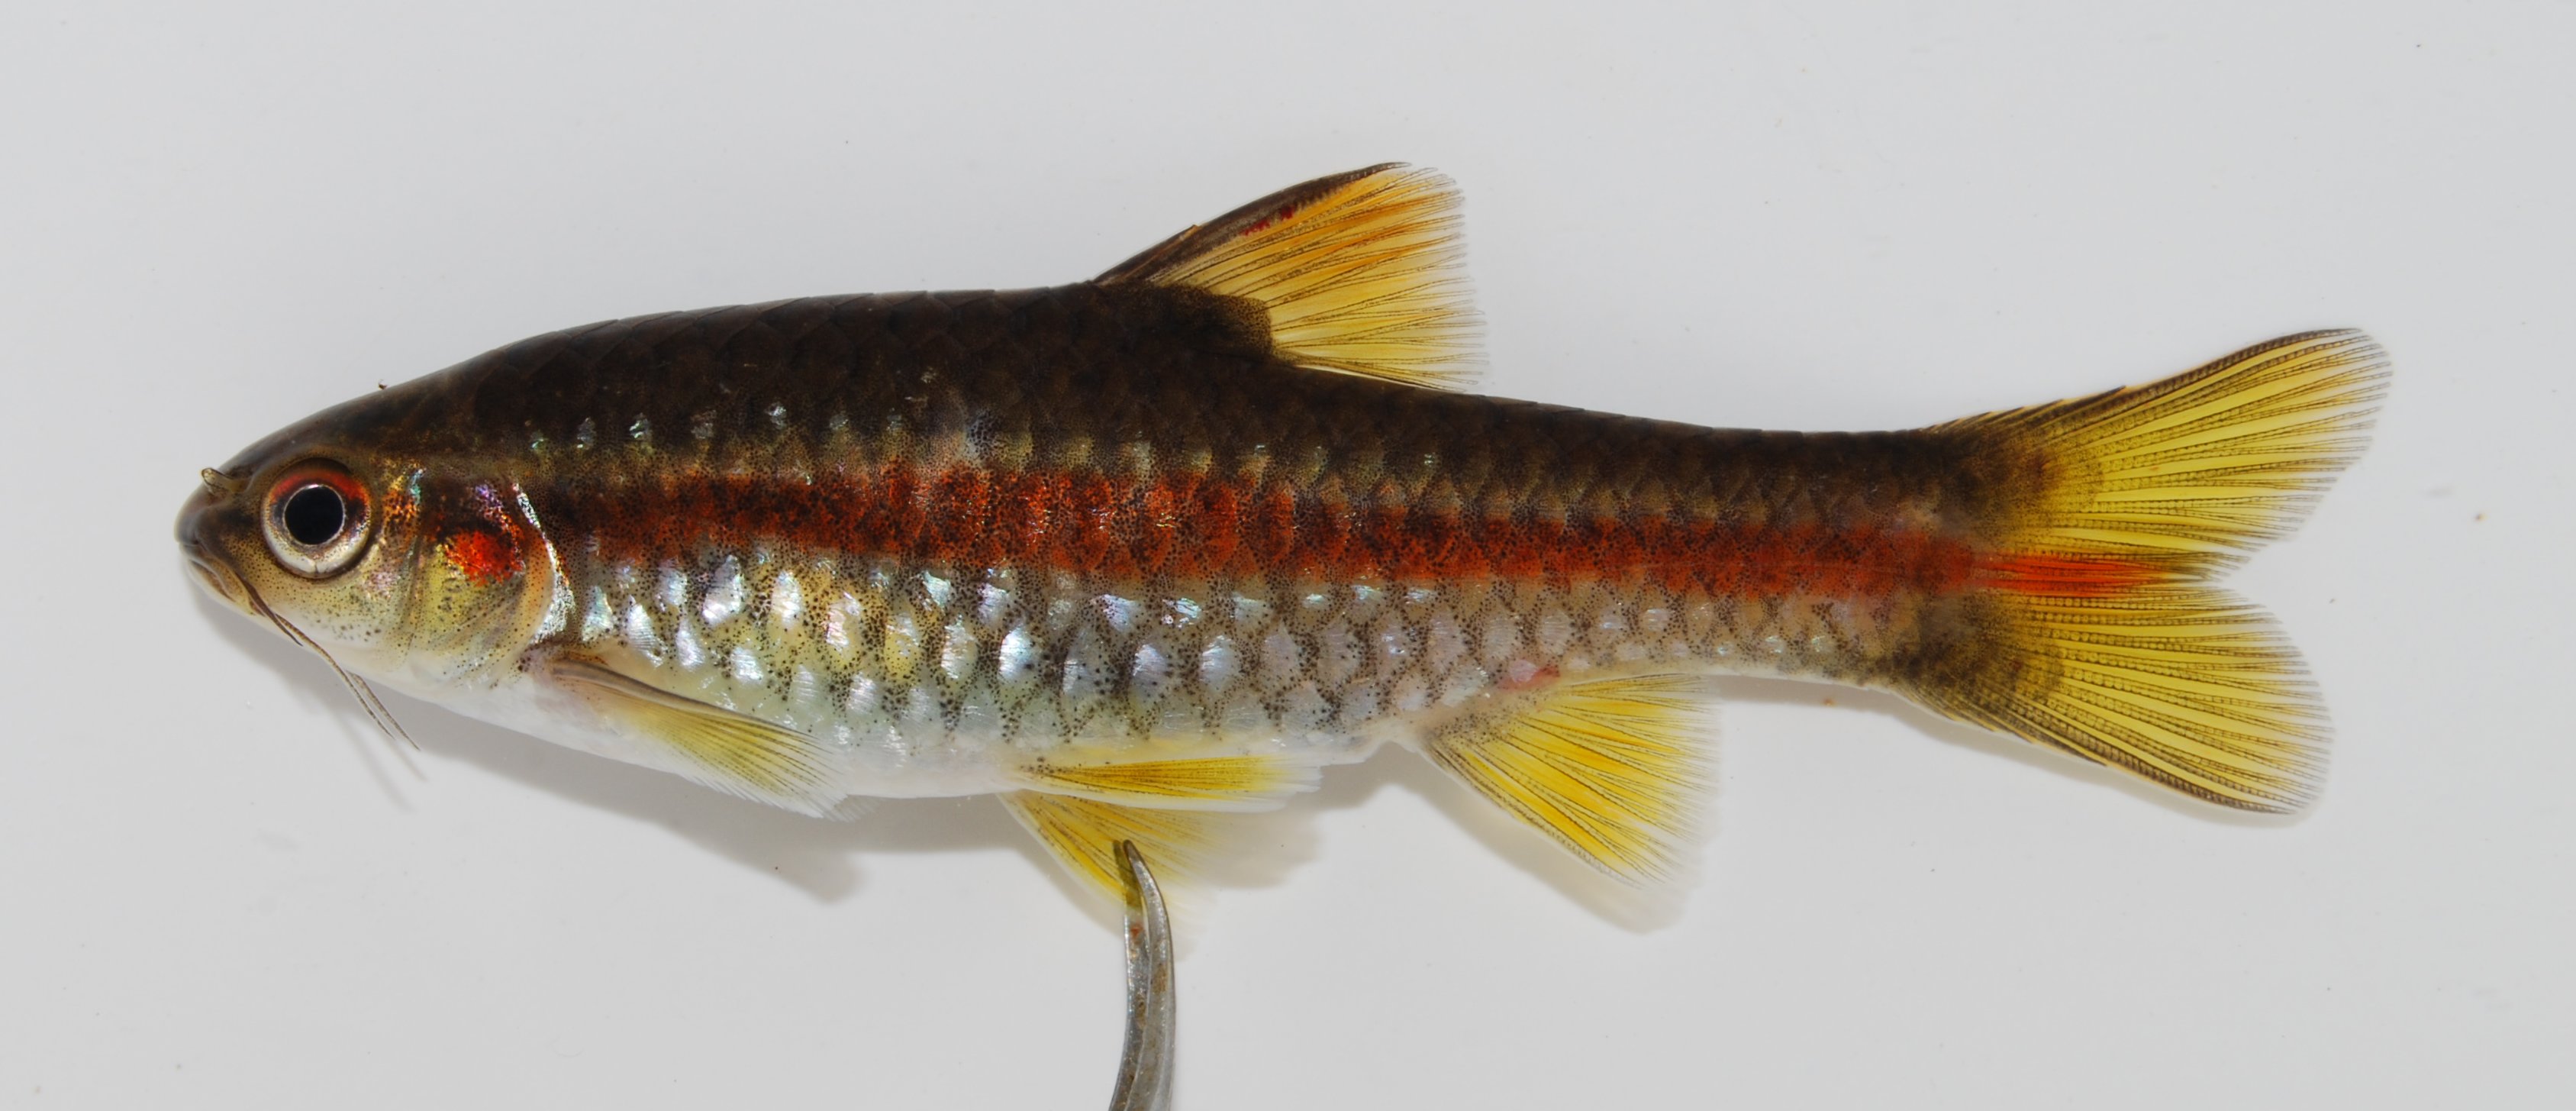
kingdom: Animalia
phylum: Chordata
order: Cypriniformes
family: Cyprinidae
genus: Barbus
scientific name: Barbus
